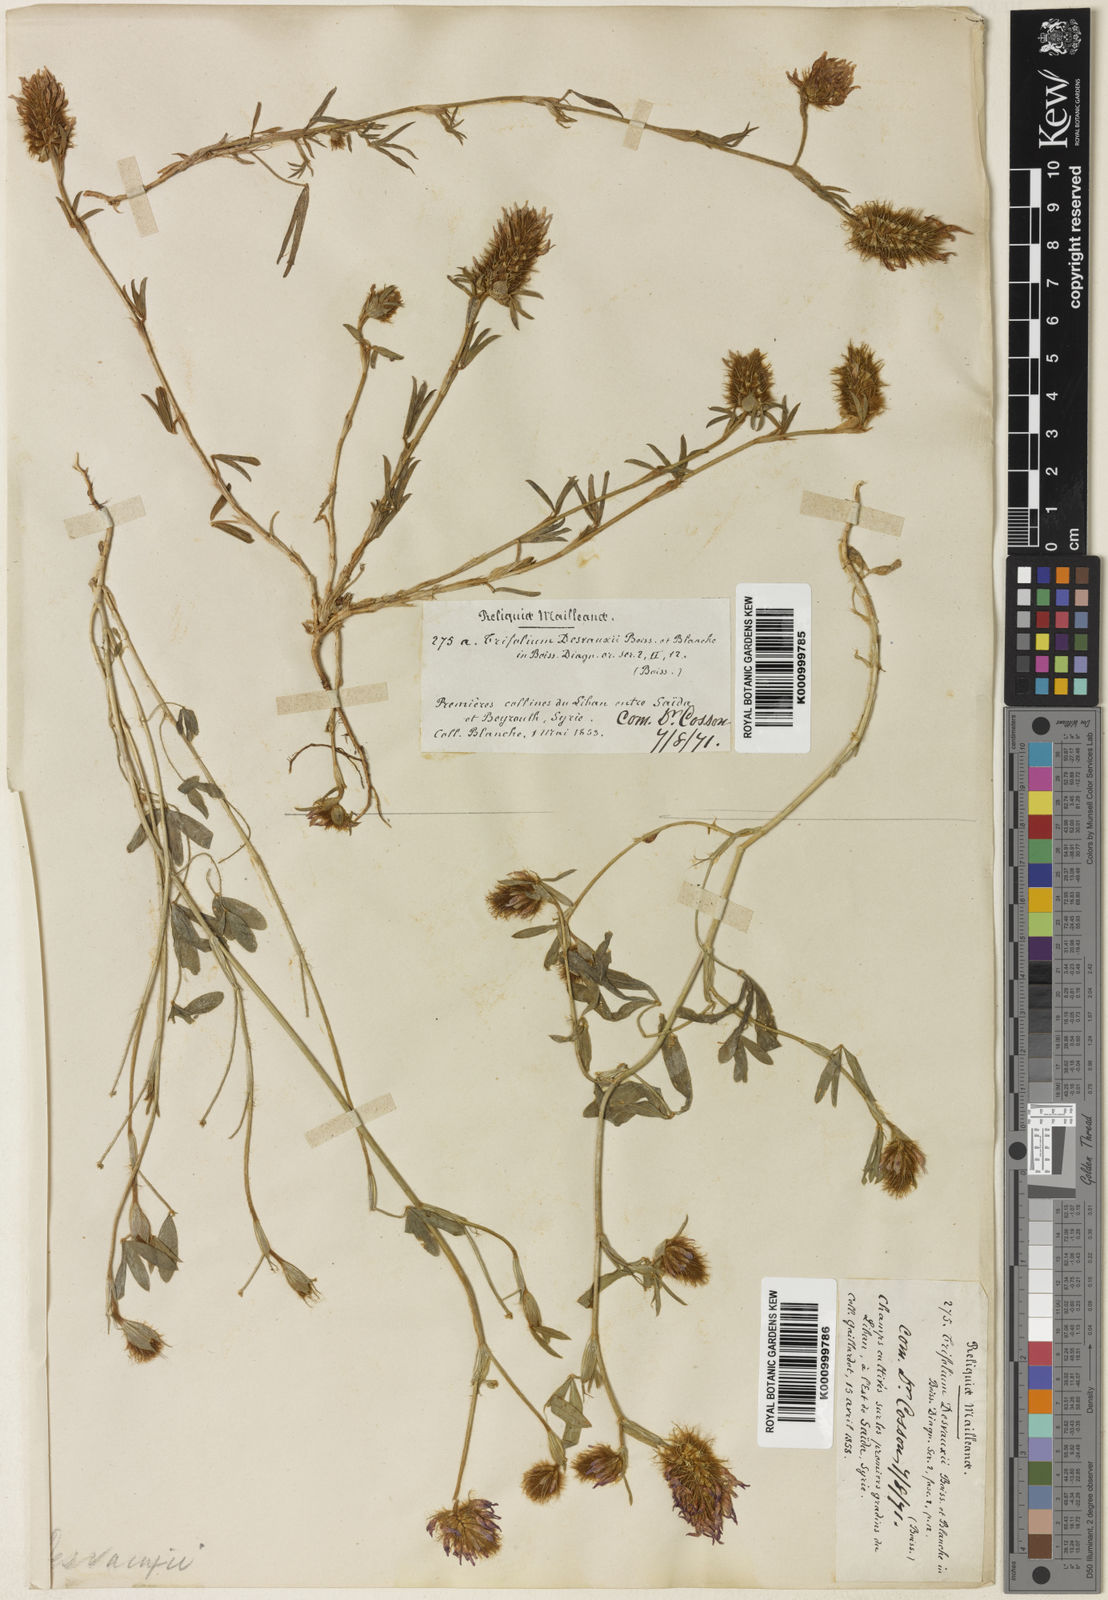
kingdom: Plantae
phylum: Tracheophyta
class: Magnoliopsida
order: Fabales
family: Fabaceae
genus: Trifolium
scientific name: Trifolium purpureum
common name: Purple clover
